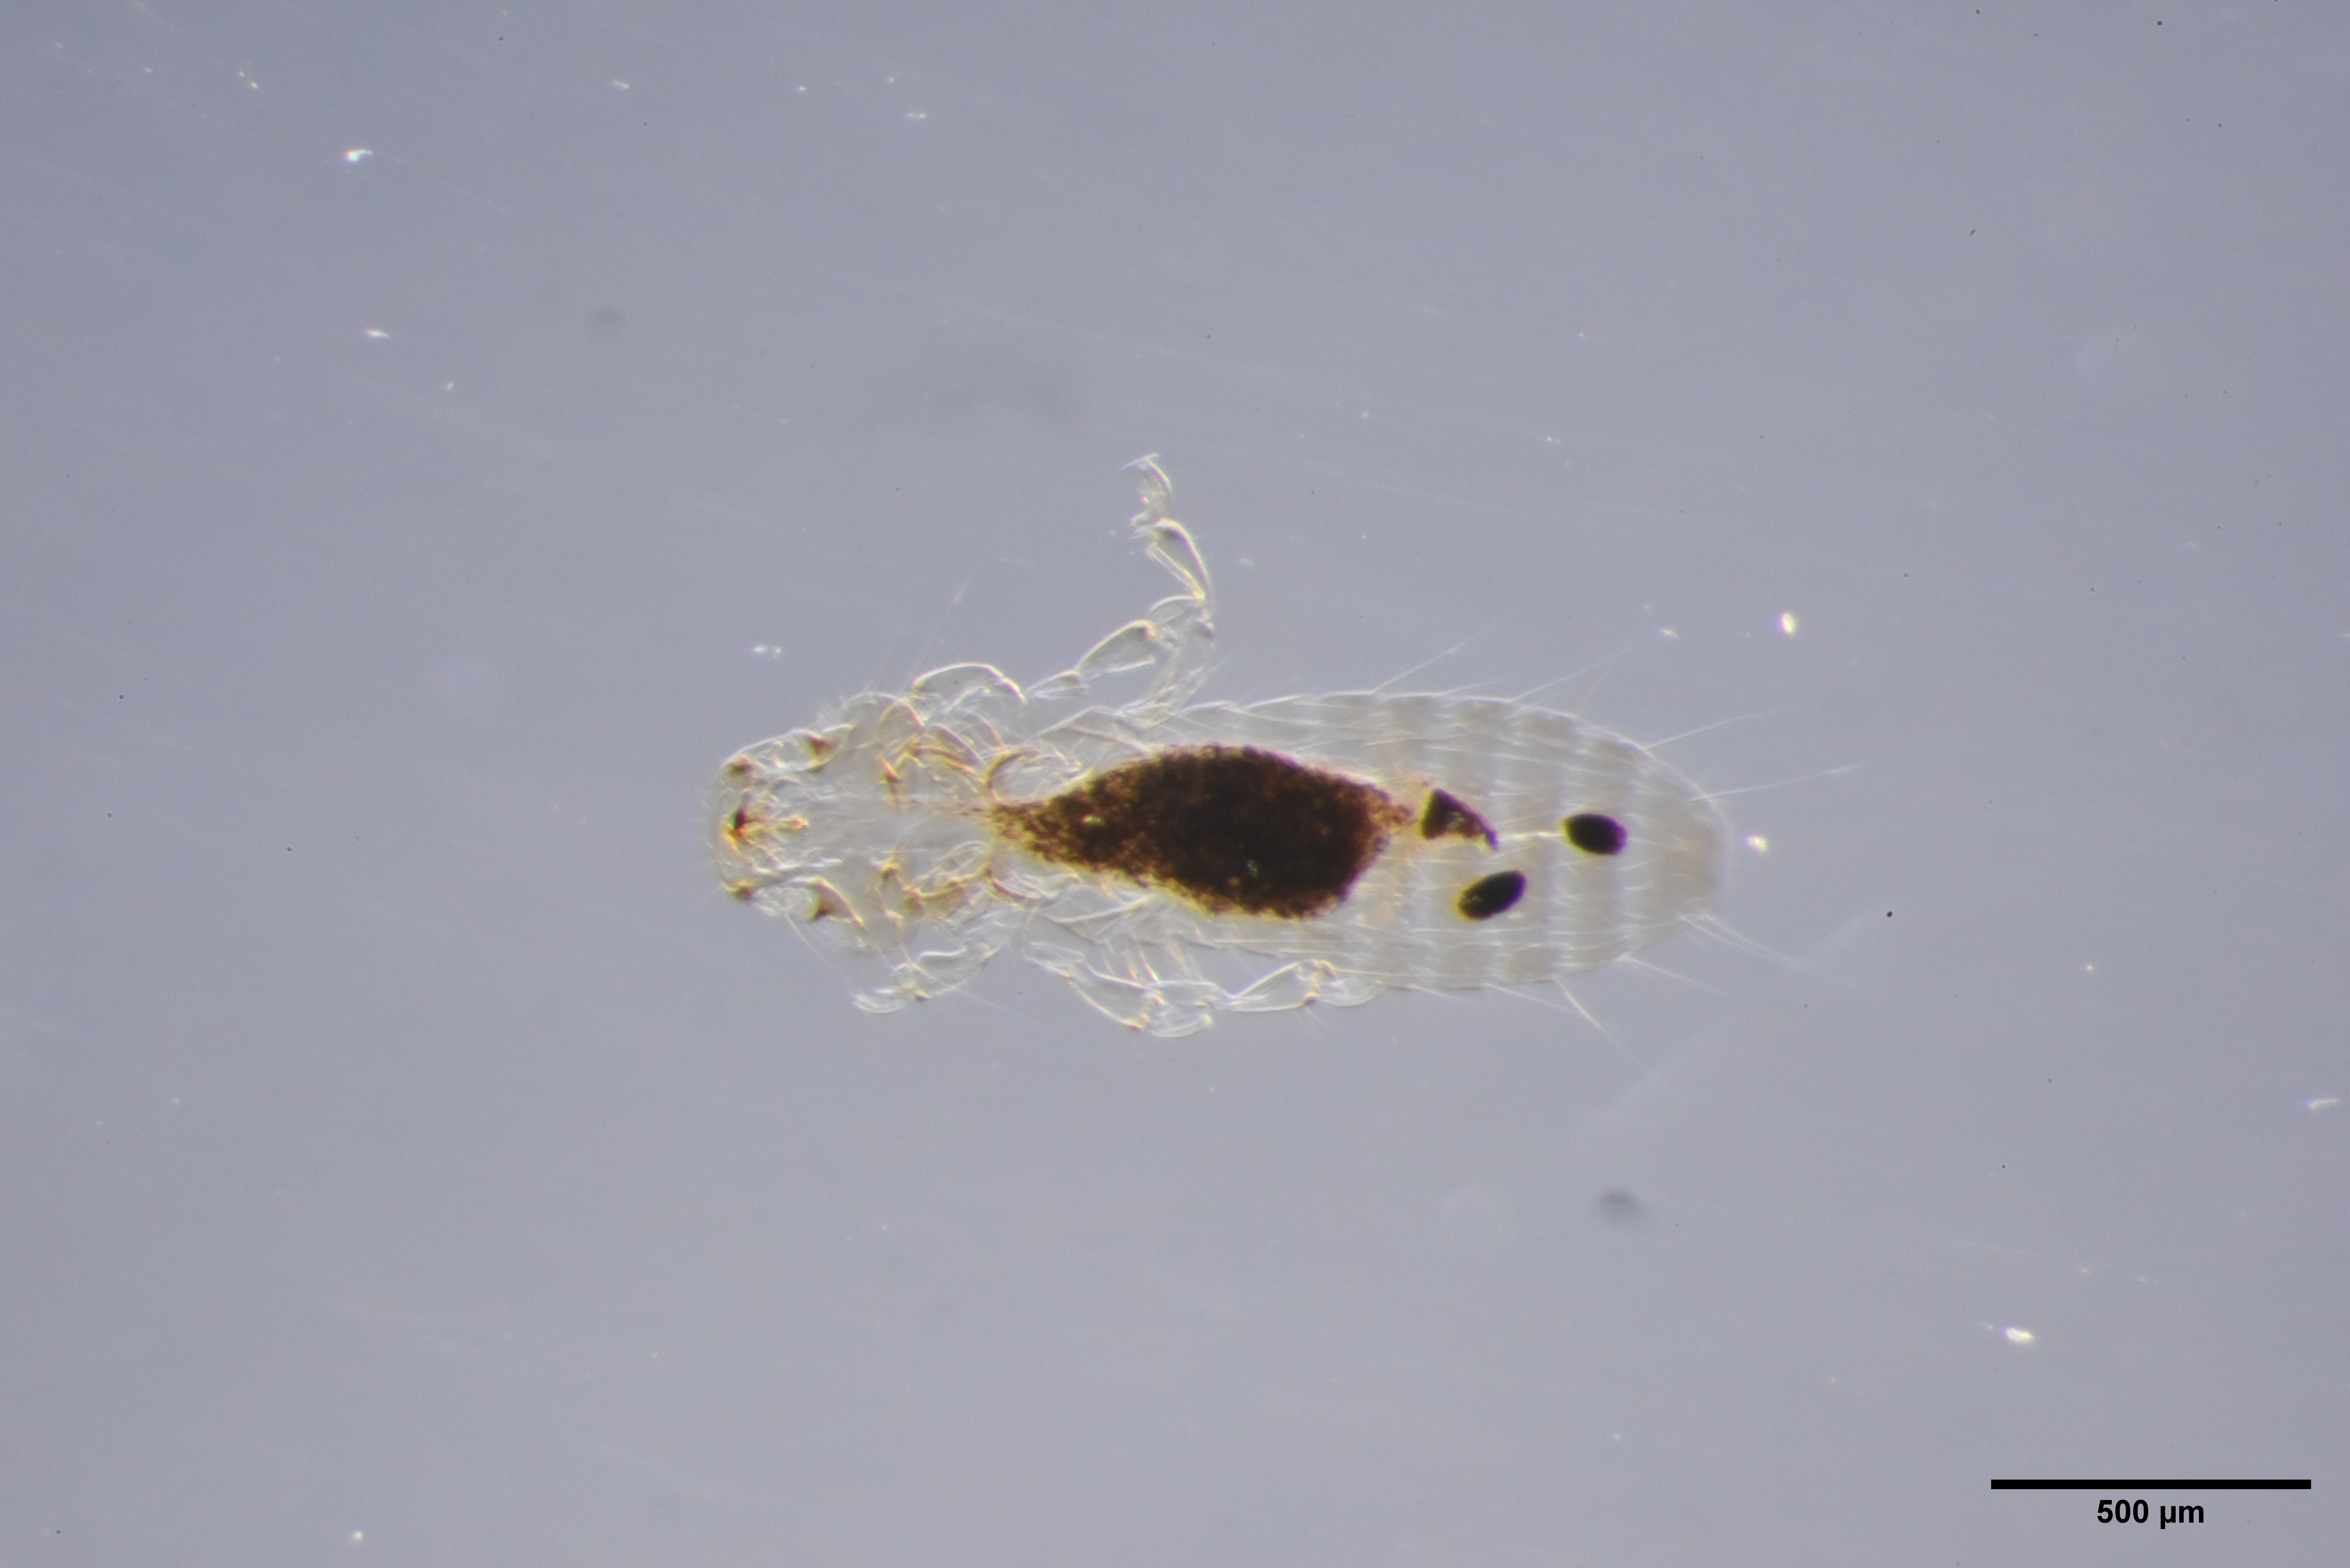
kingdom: Animalia
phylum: Arthropoda
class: Insecta
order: Psocodea
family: Ancistronidae
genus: Actornithophilus
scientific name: Actornithophilus paludosus
